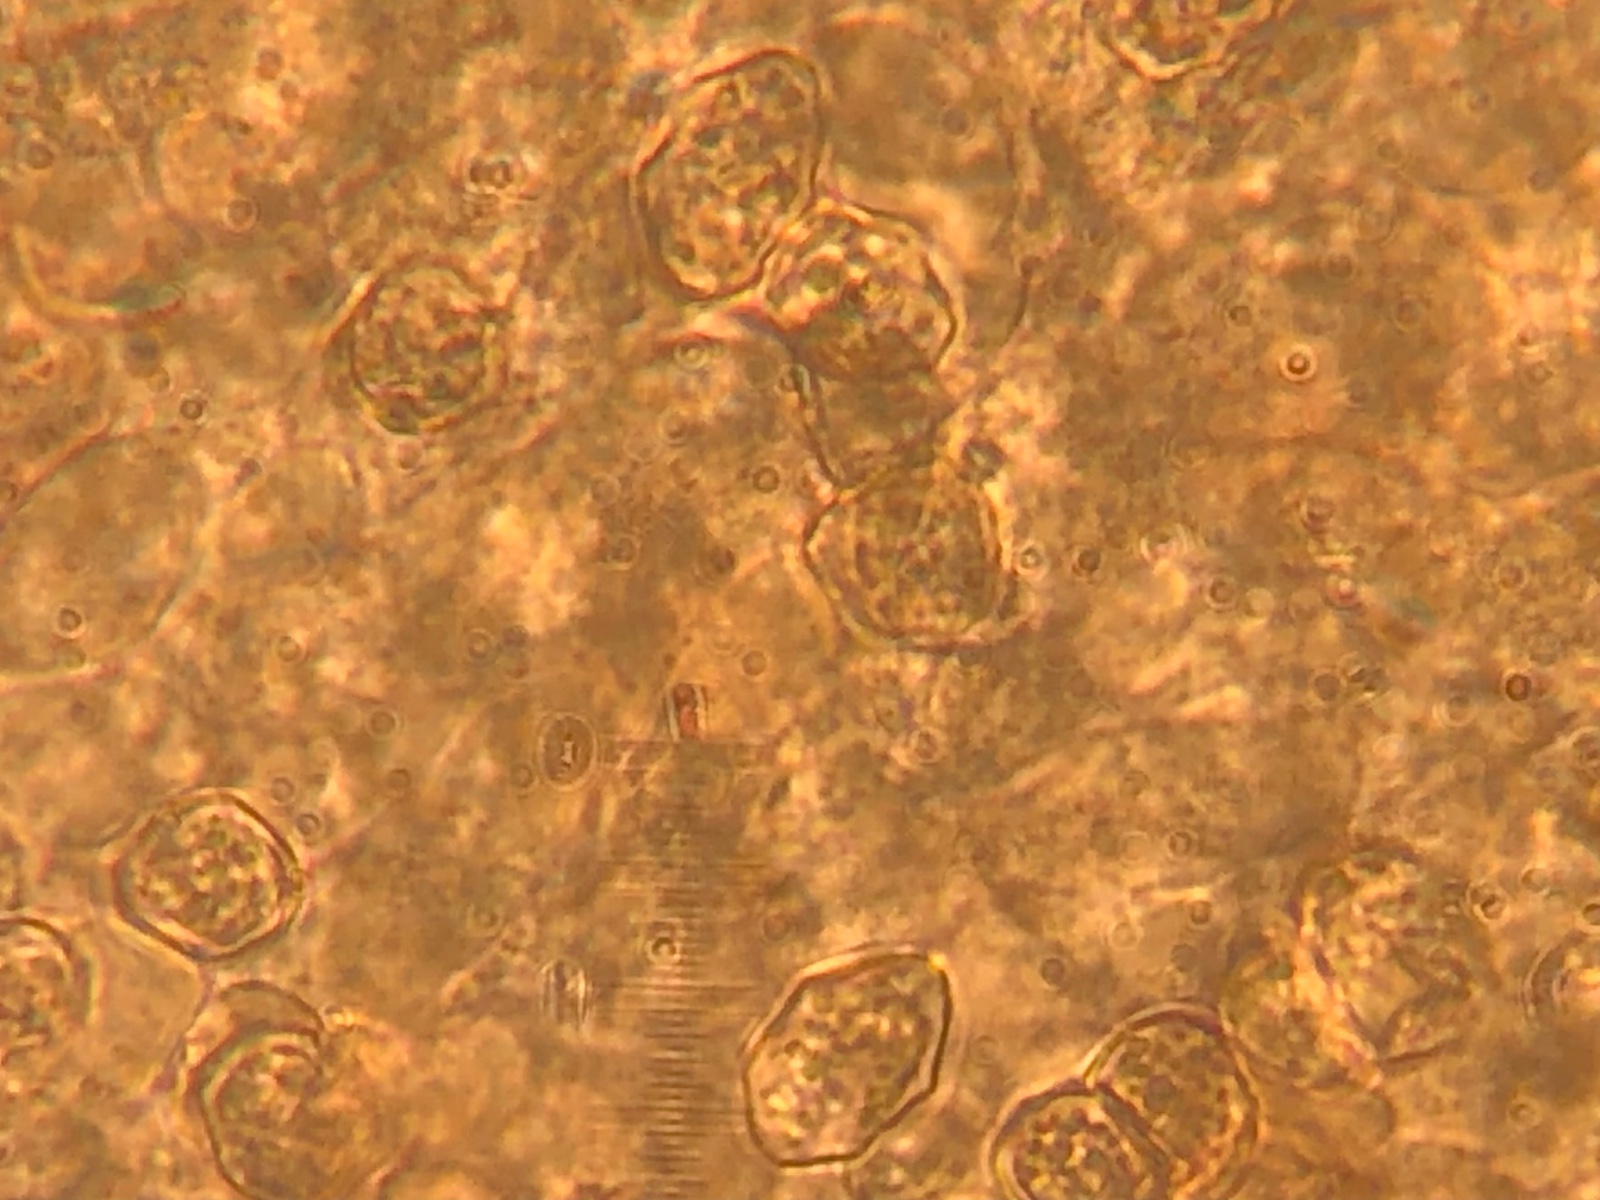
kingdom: Fungi
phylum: Basidiomycota
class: Agaricomycetes
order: Agaricales
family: Entolomataceae
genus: Entoloma
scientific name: Entoloma
